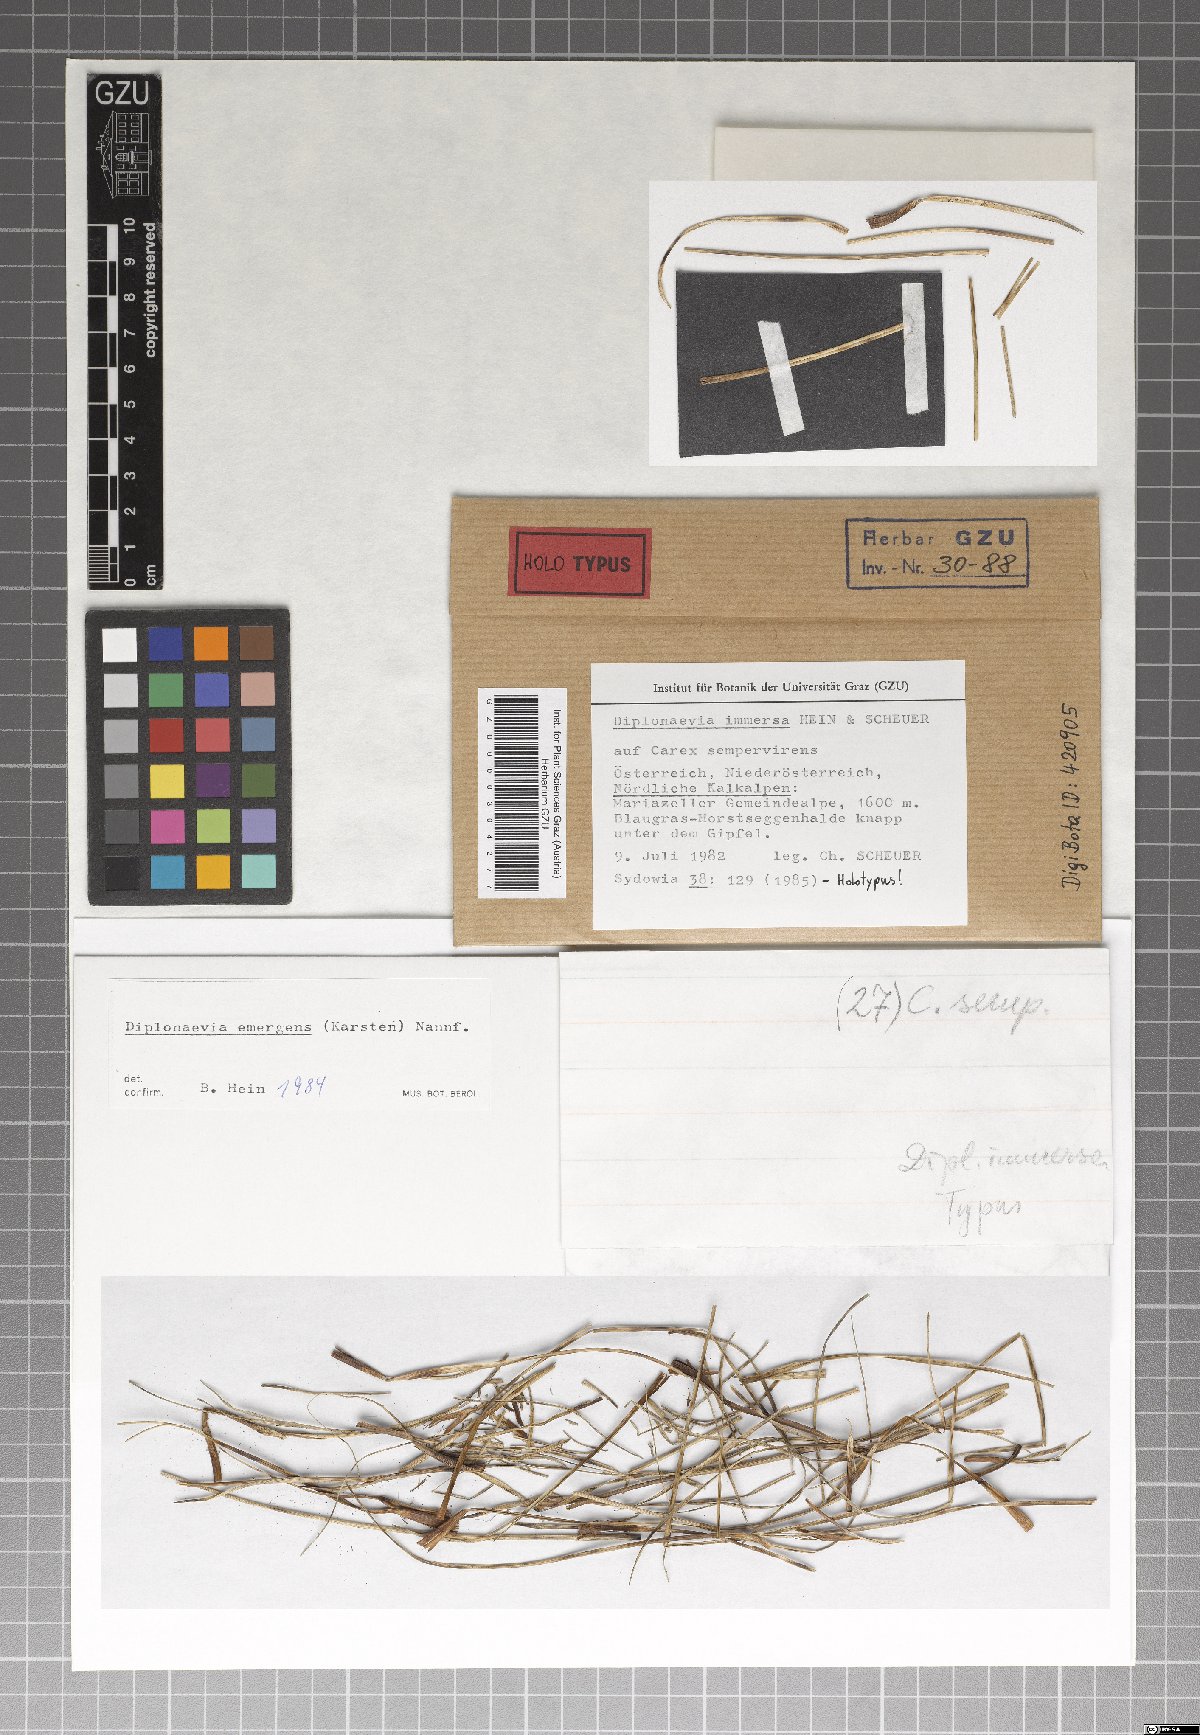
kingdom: Fungi
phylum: Ascomycota
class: Leotiomycetes
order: Helotiales
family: Calloriaceae
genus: Diplonaevia
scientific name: Diplonaevia immersa
